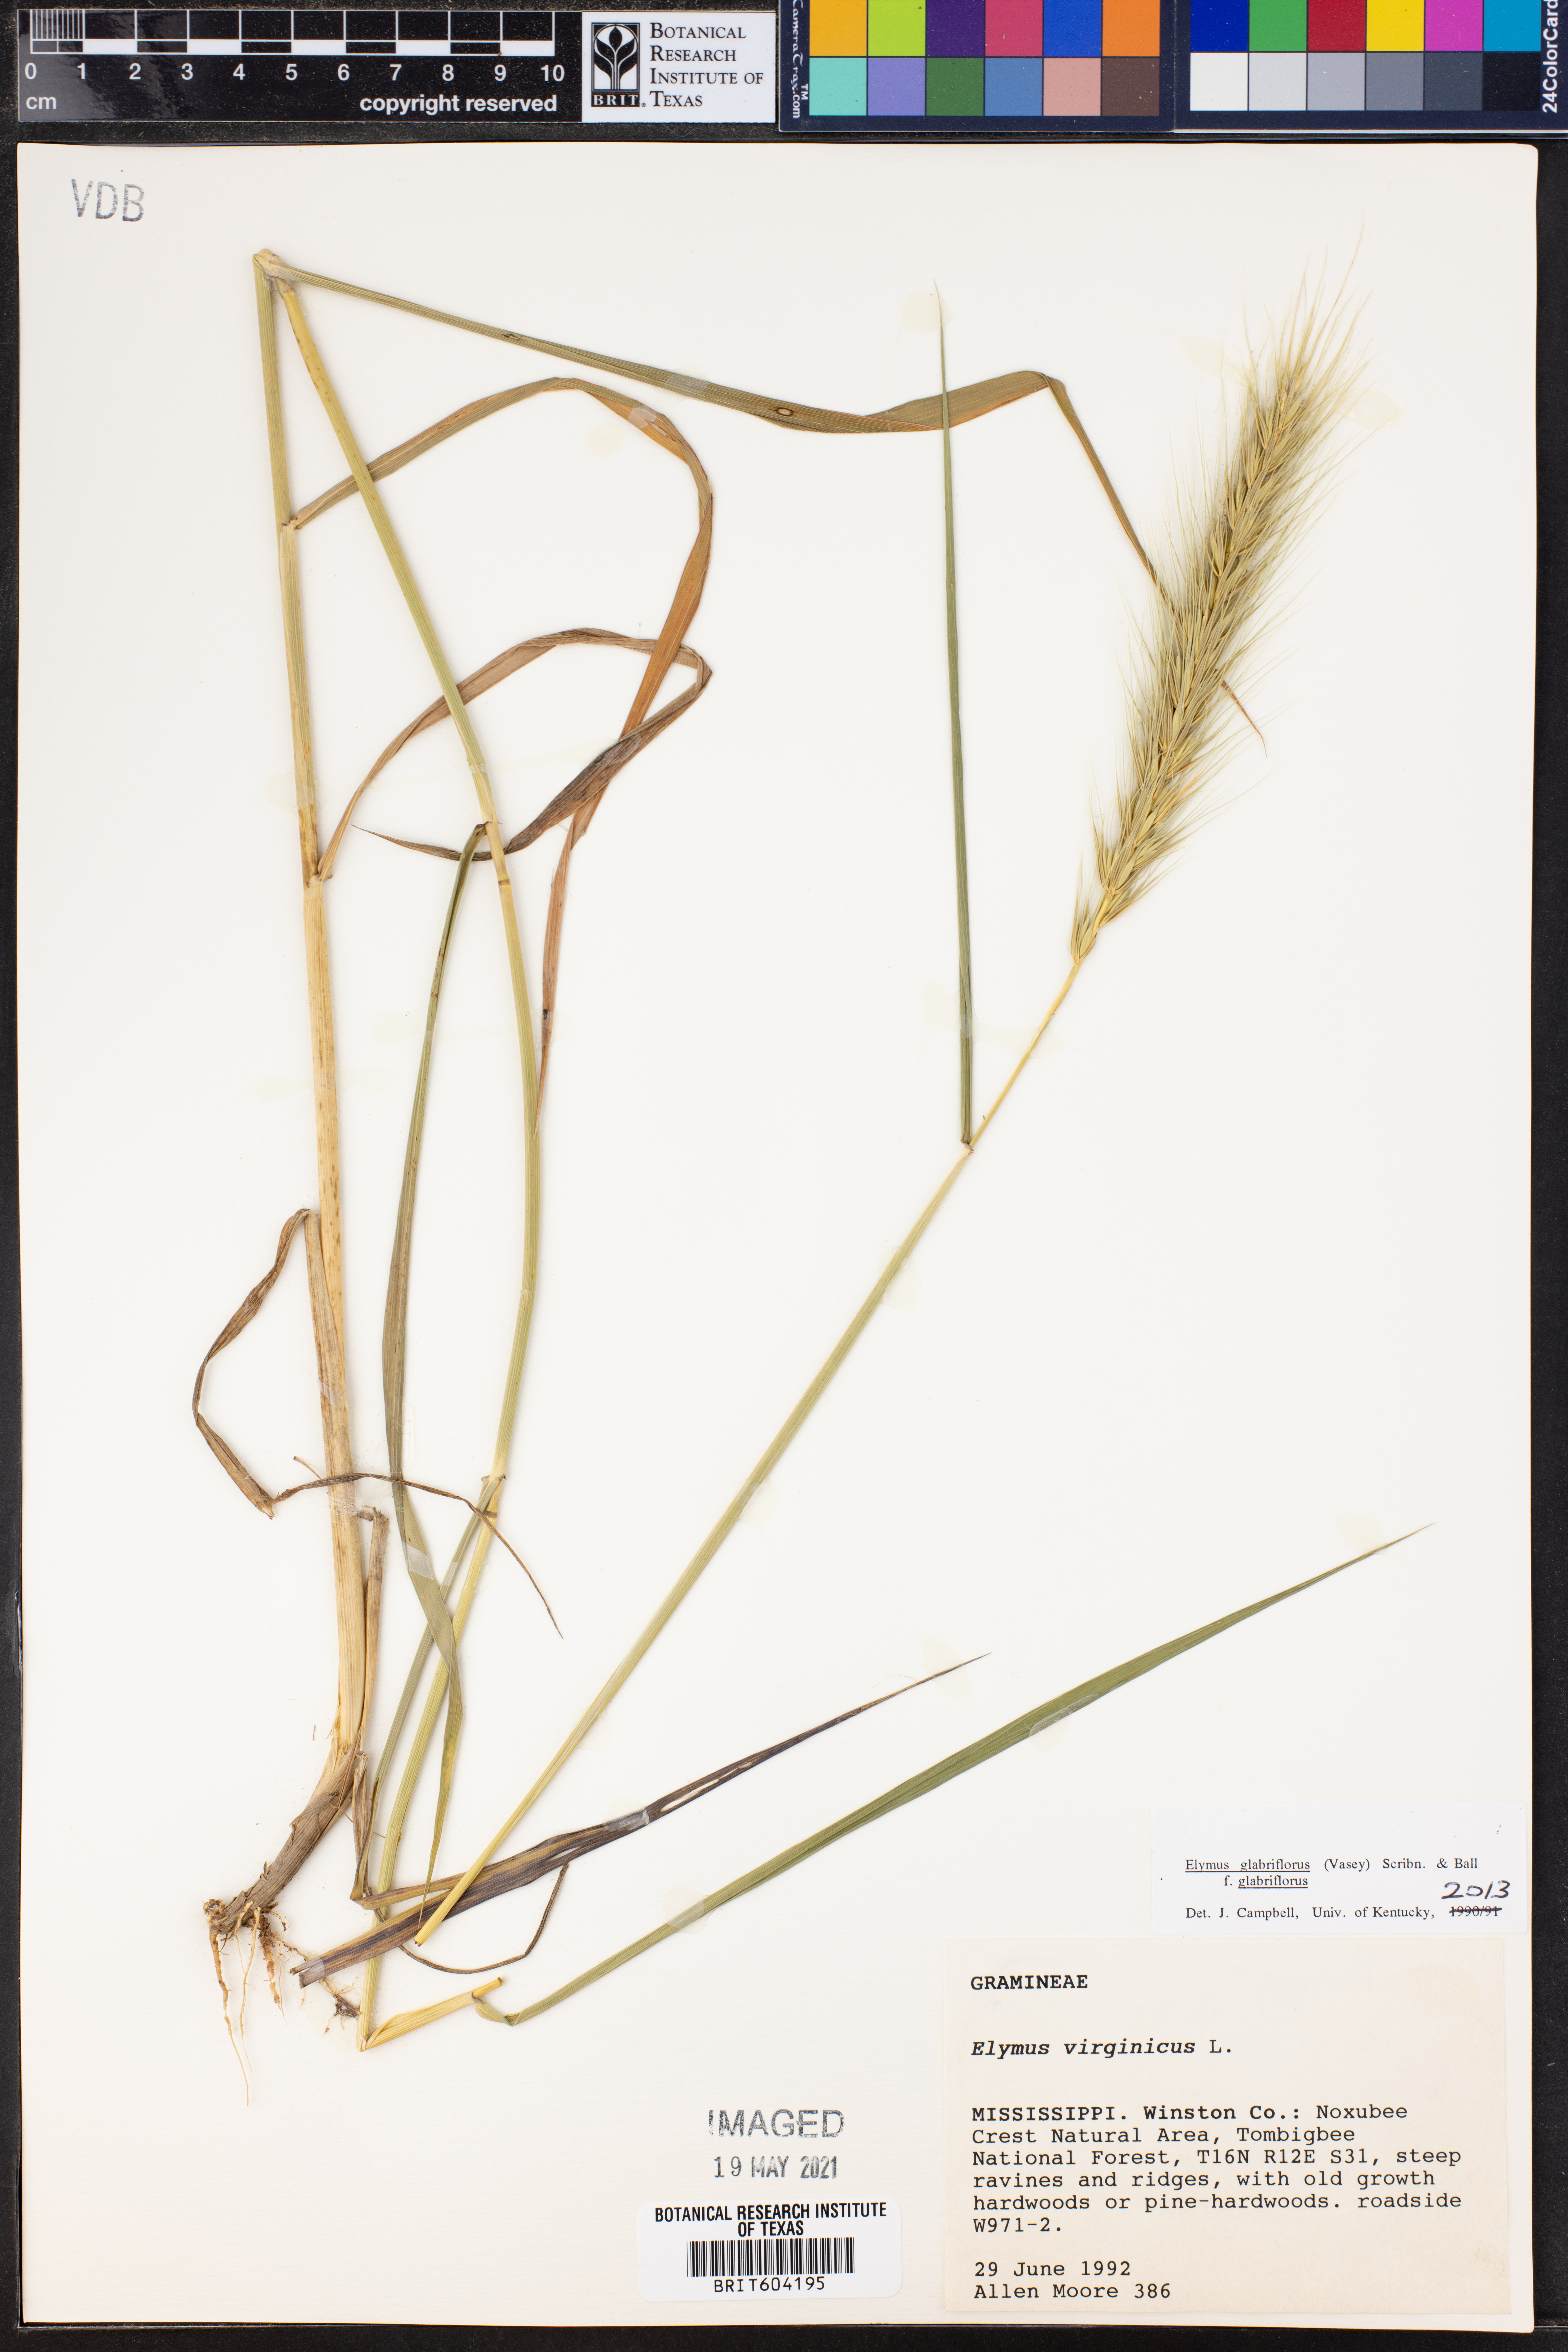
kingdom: Plantae
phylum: Tracheophyta
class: Liliopsida
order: Poales
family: Poaceae
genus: Elymus
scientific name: Elymus virginicus
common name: Common eastern wildrye
